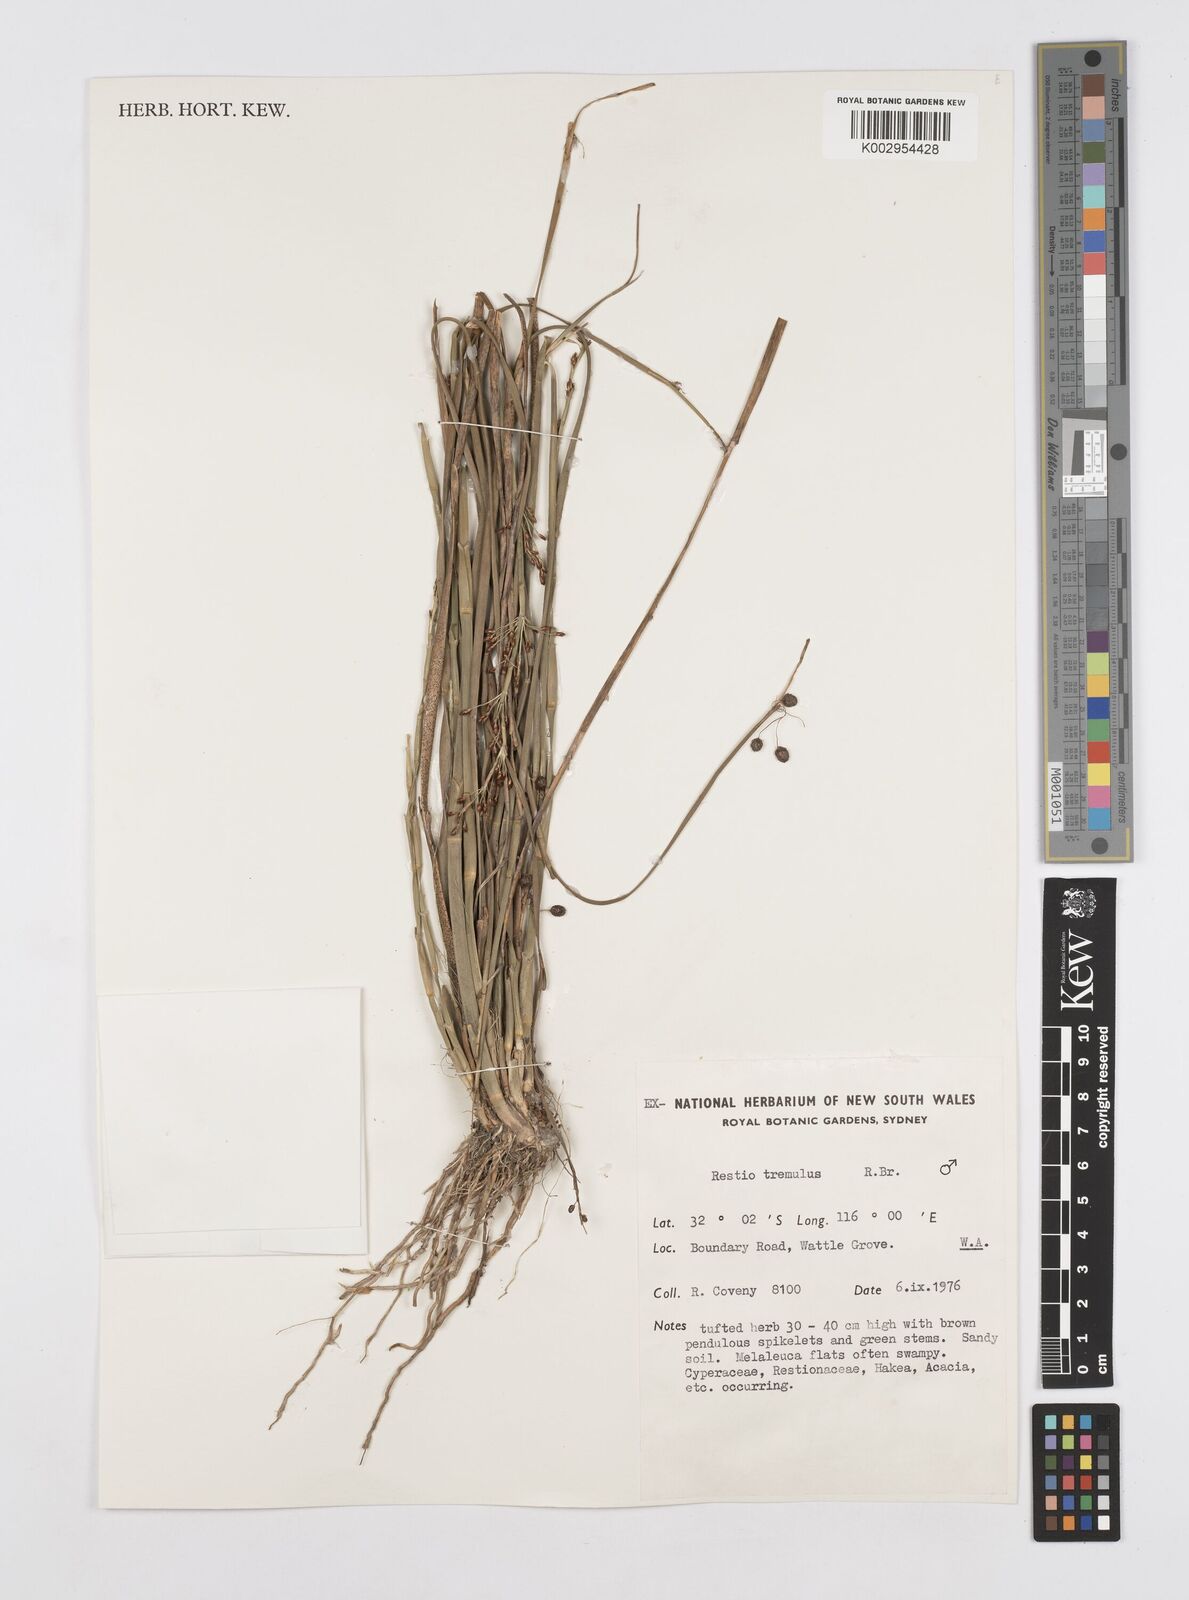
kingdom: Plantae
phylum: Tracheophyta
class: Liliopsida
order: Poales
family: Restionaceae
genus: Tremulina
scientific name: Tremulina tremula
